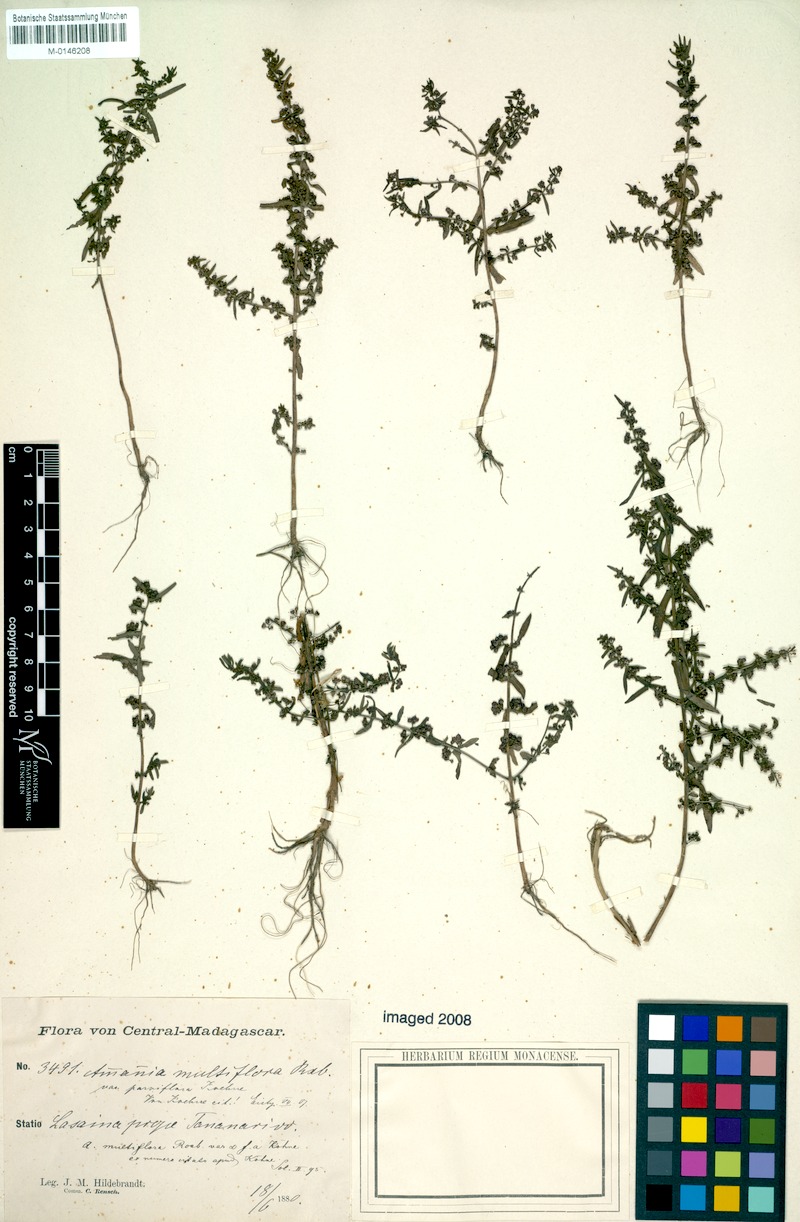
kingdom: Plantae
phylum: Tracheophyta
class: Magnoliopsida
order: Myrtales
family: Lythraceae
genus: Ammannia
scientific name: Ammannia auriculata
